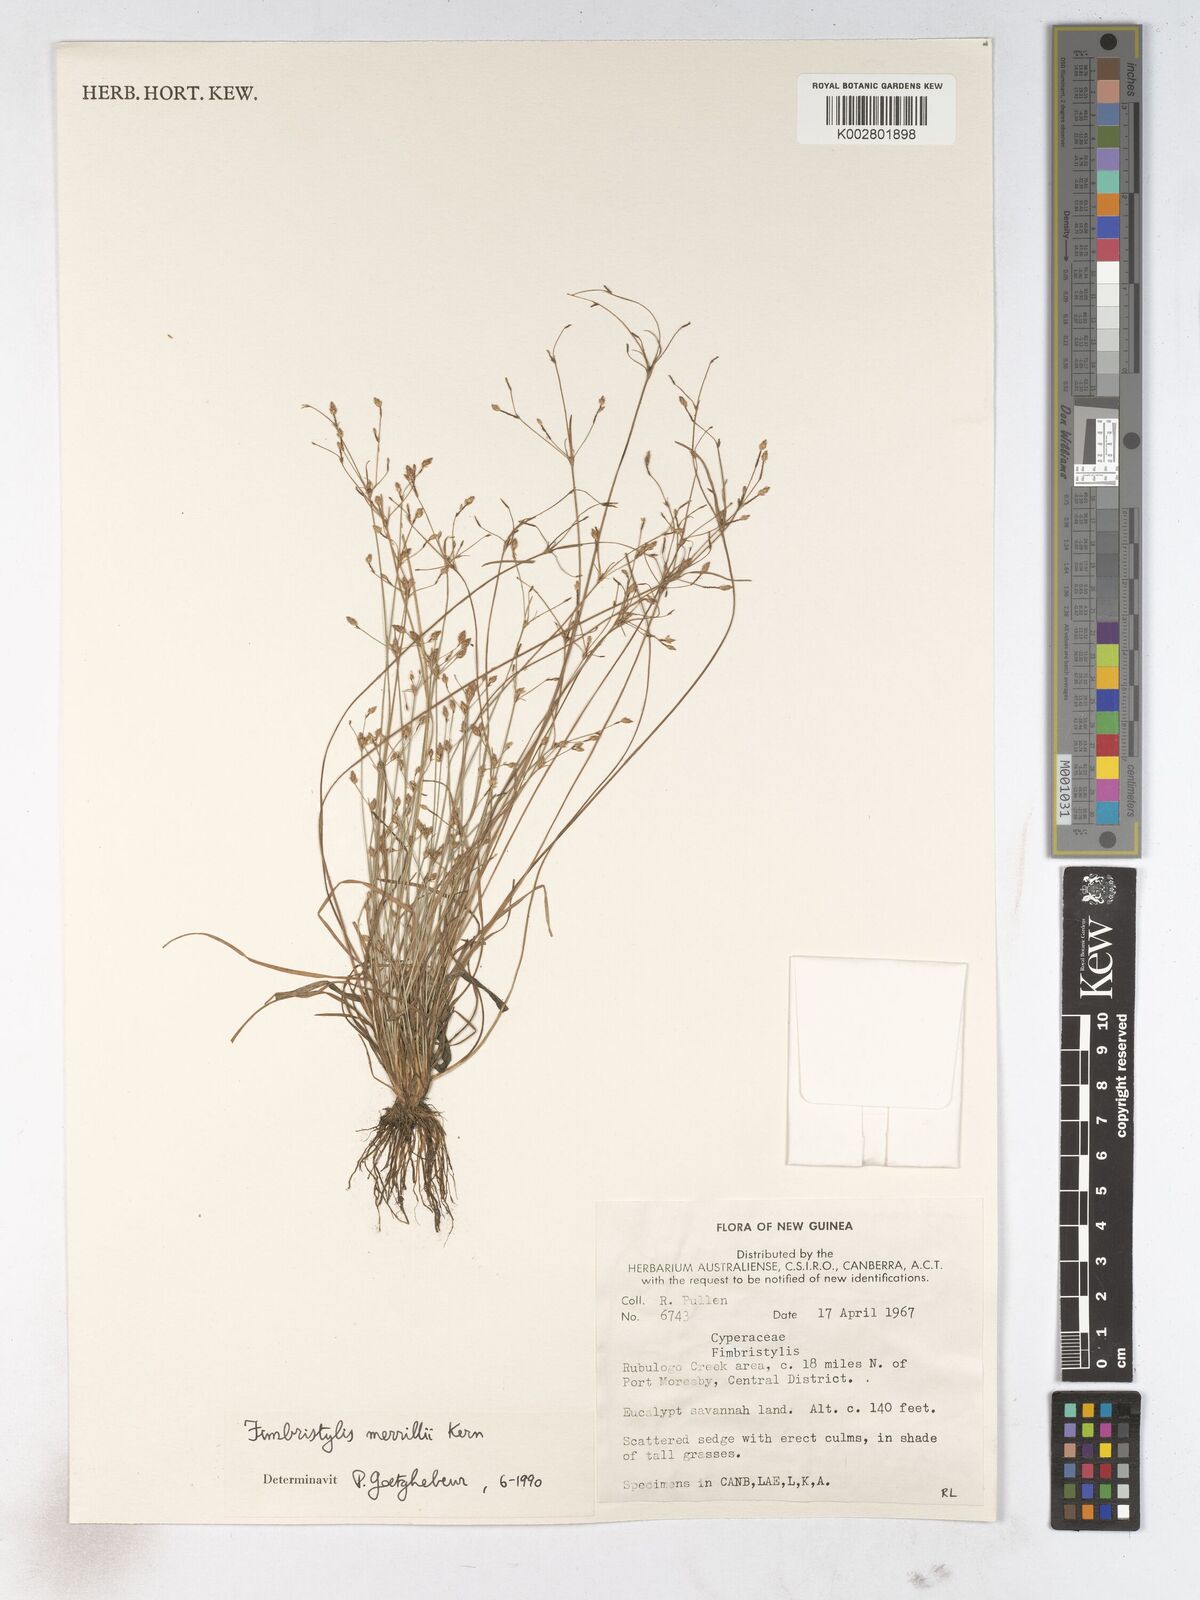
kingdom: Plantae
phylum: Tracheophyta
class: Liliopsida
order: Poales
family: Cyperaceae
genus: Fimbristylis
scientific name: Fimbristylis merrillii
